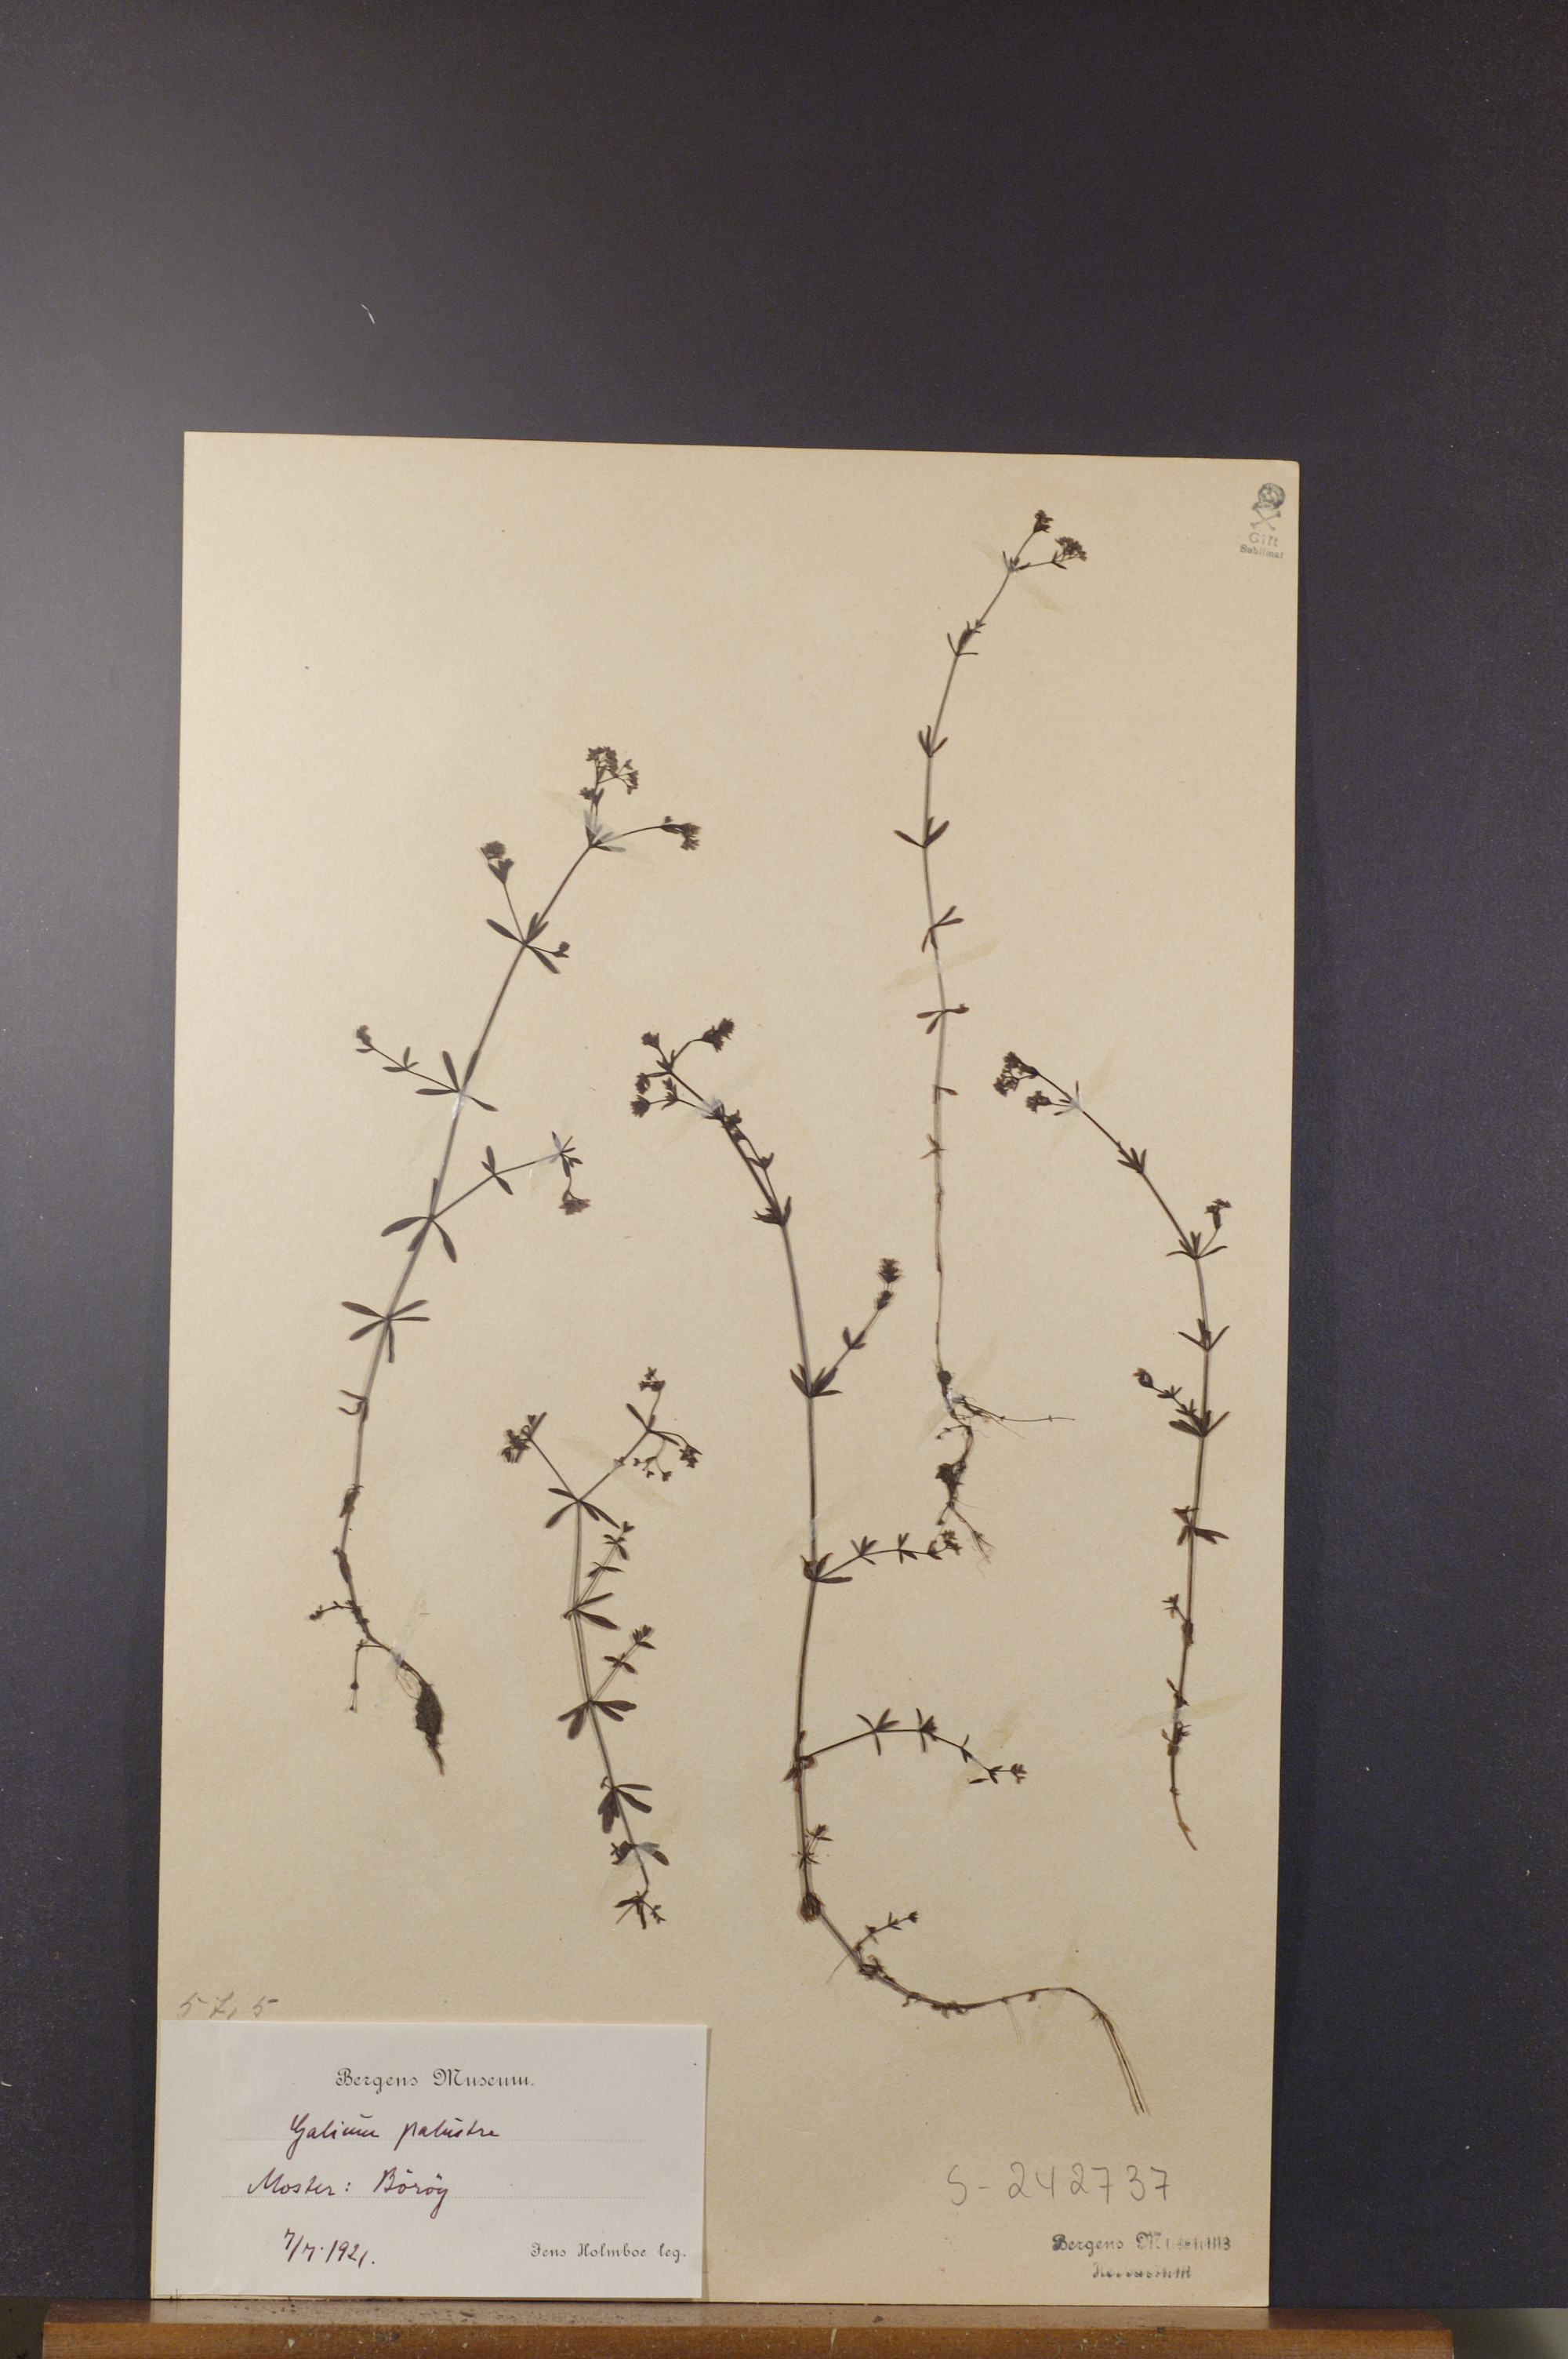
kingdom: Plantae
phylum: Tracheophyta
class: Magnoliopsida
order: Gentianales
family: Rubiaceae
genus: Galium
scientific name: Galium palustre
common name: Common marsh-bedstraw
